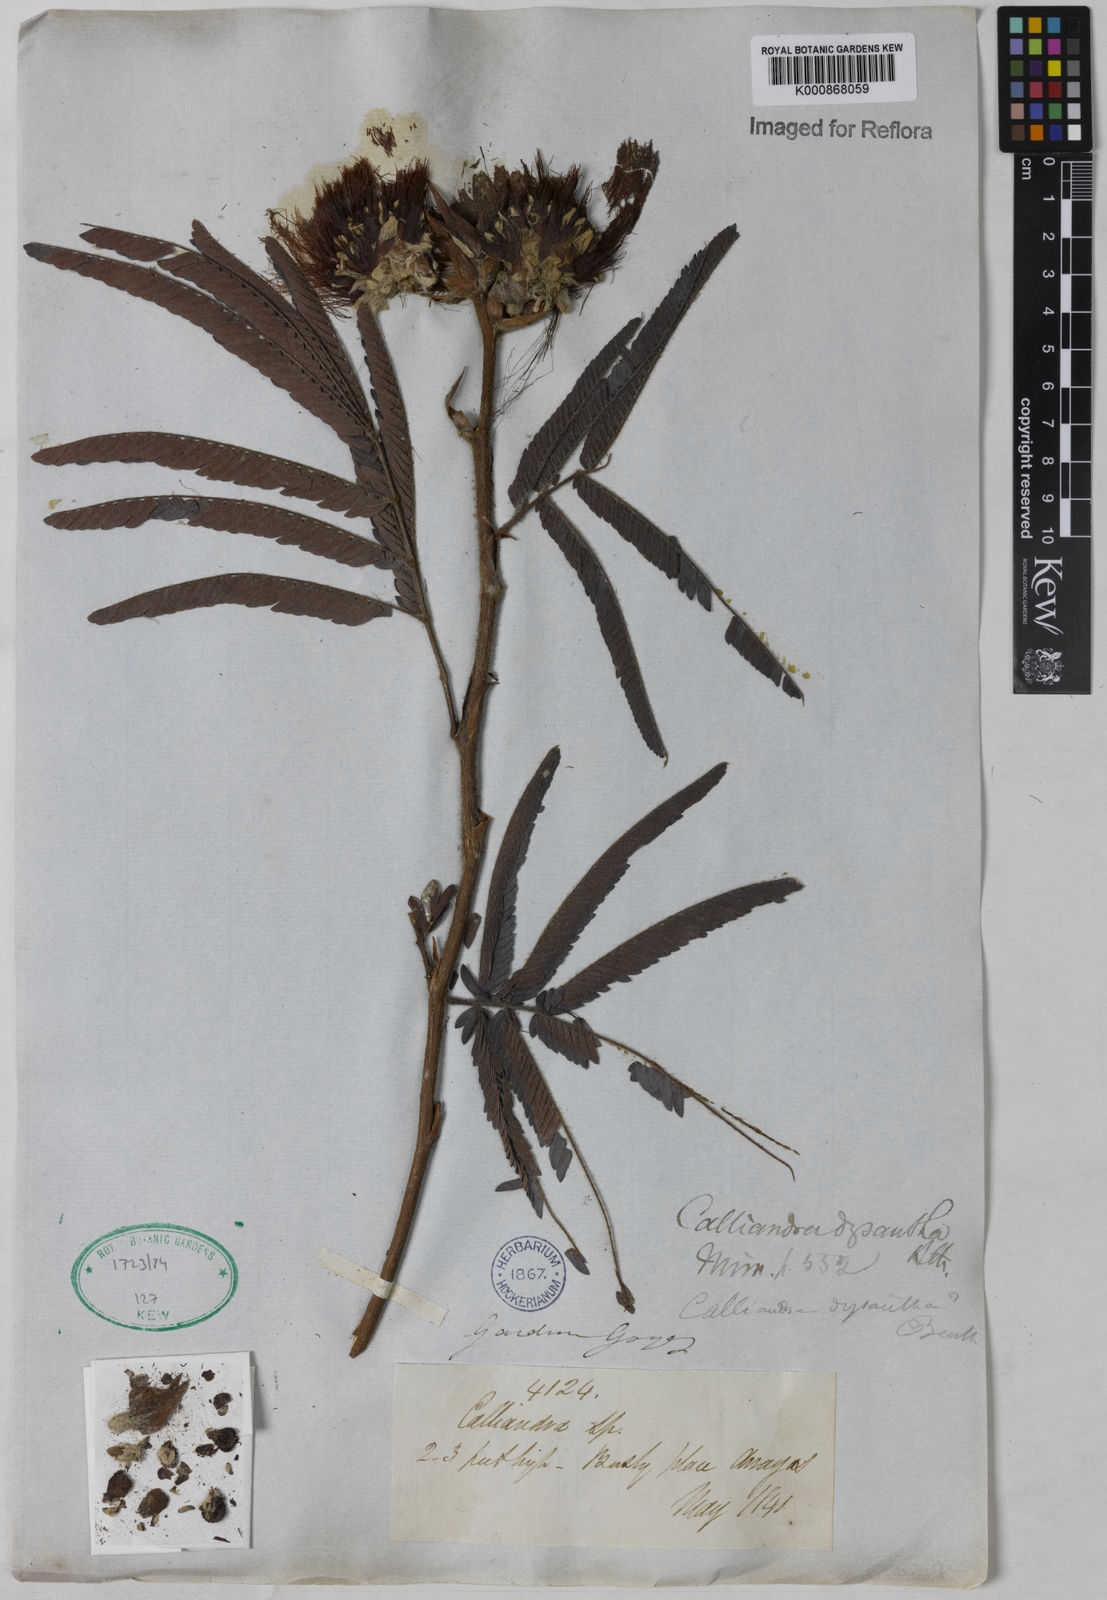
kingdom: Plantae
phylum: Tracheophyta
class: Magnoliopsida
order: Fabales
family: Fabaceae
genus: Calliandra
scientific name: Calliandra dysantha
